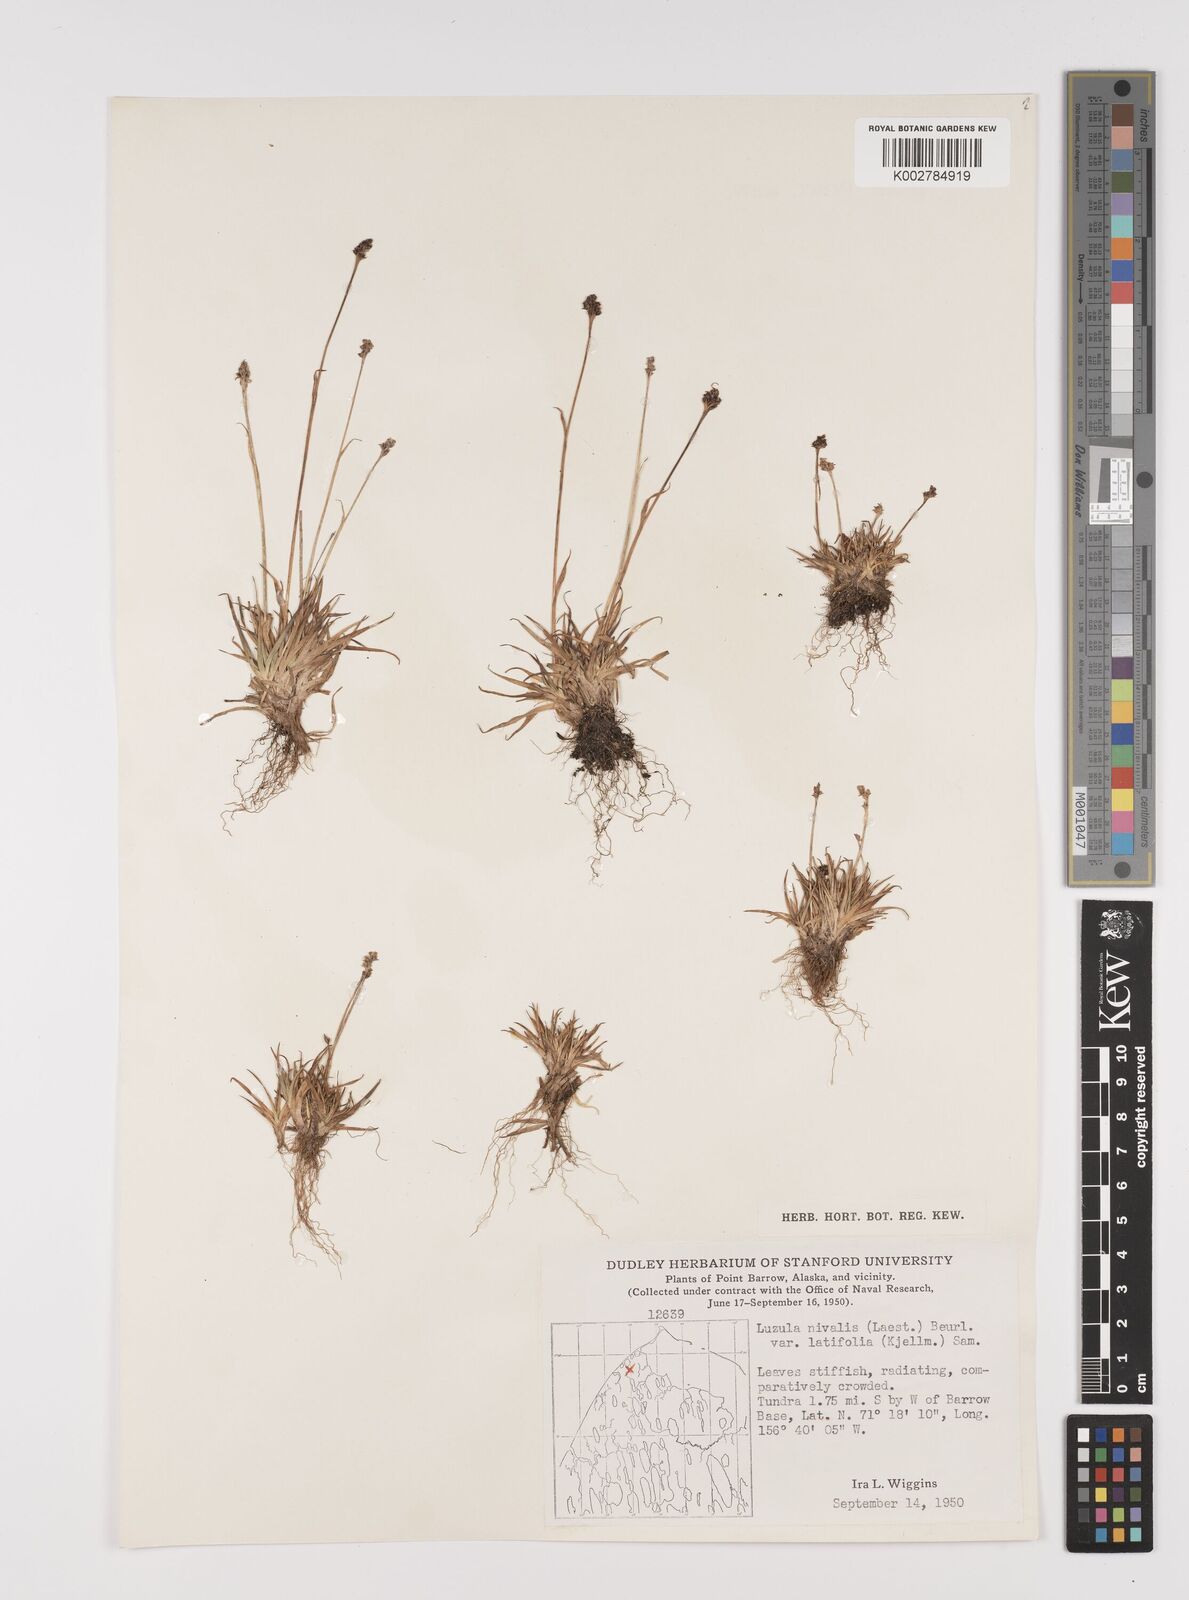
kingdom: Plantae
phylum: Tracheophyta
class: Liliopsida
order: Poales
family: Juncaceae
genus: Luzula
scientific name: Luzula nivalis
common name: Arctic woodrush
